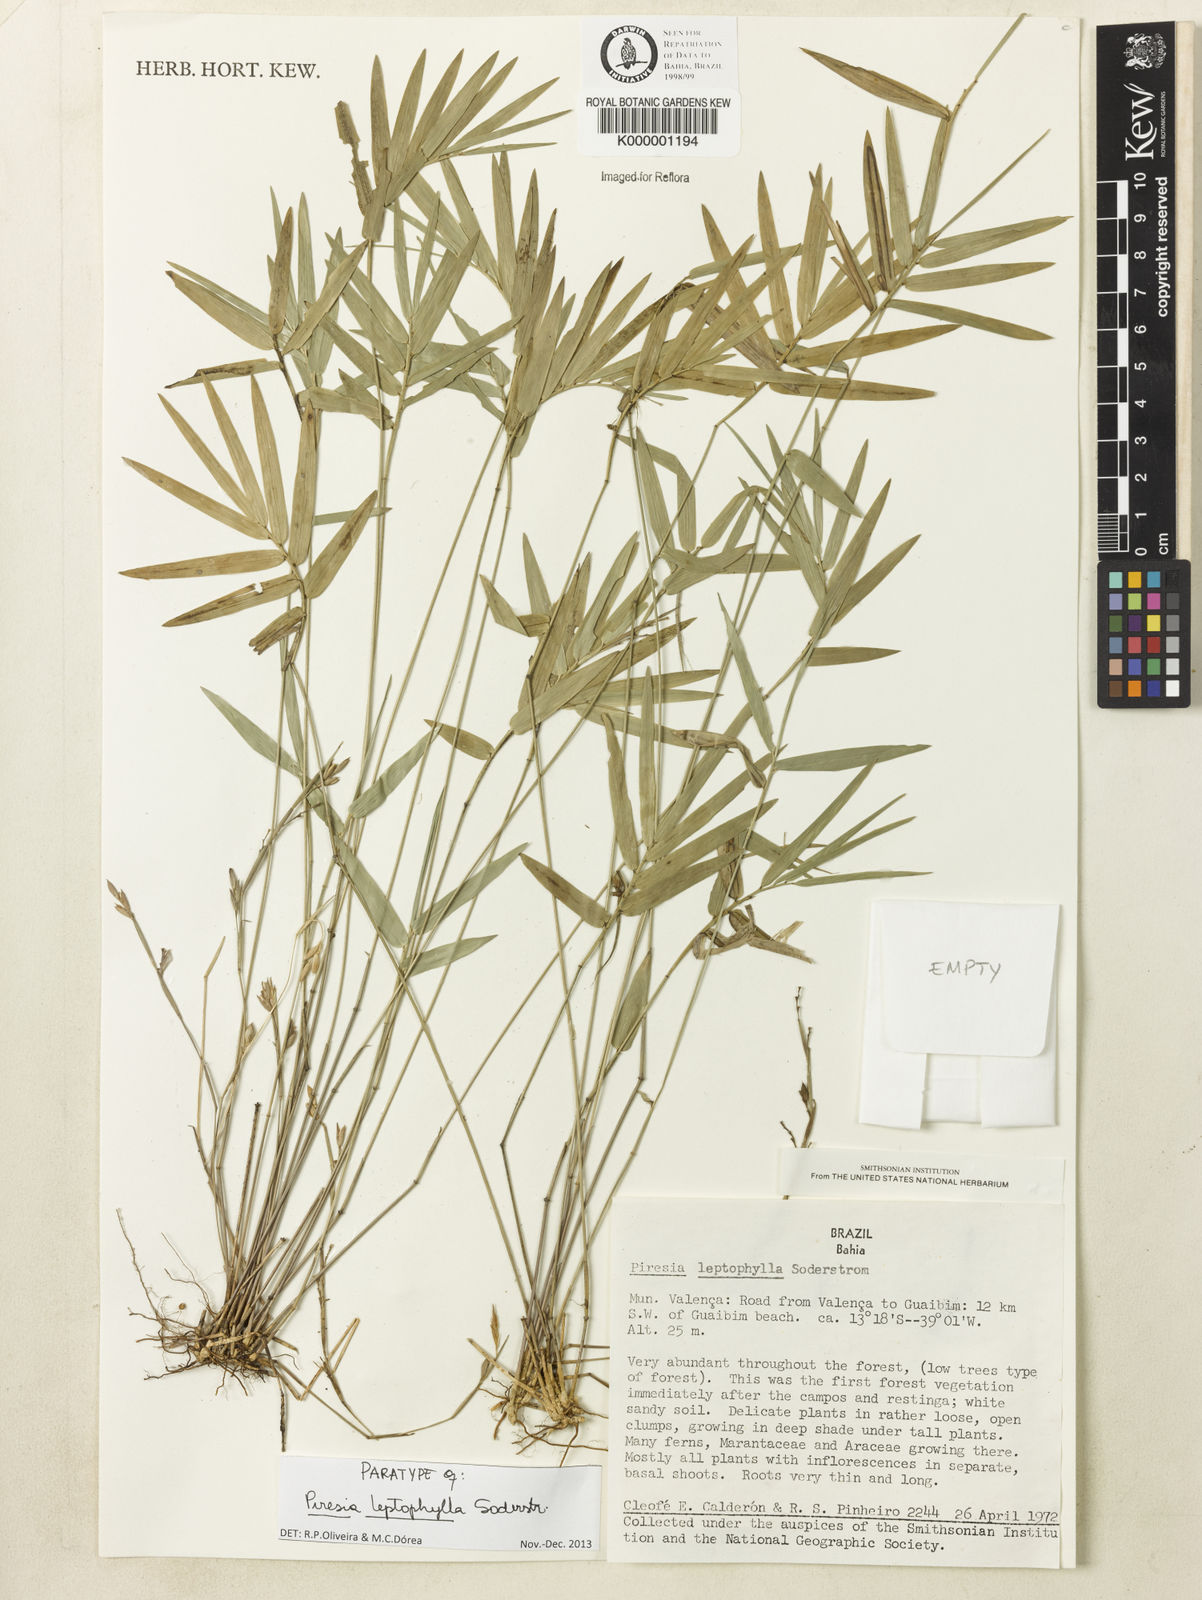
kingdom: Plantae
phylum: Tracheophyta
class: Liliopsida
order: Poales
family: Poaceae
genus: Piresia
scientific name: Piresia leptophylla
